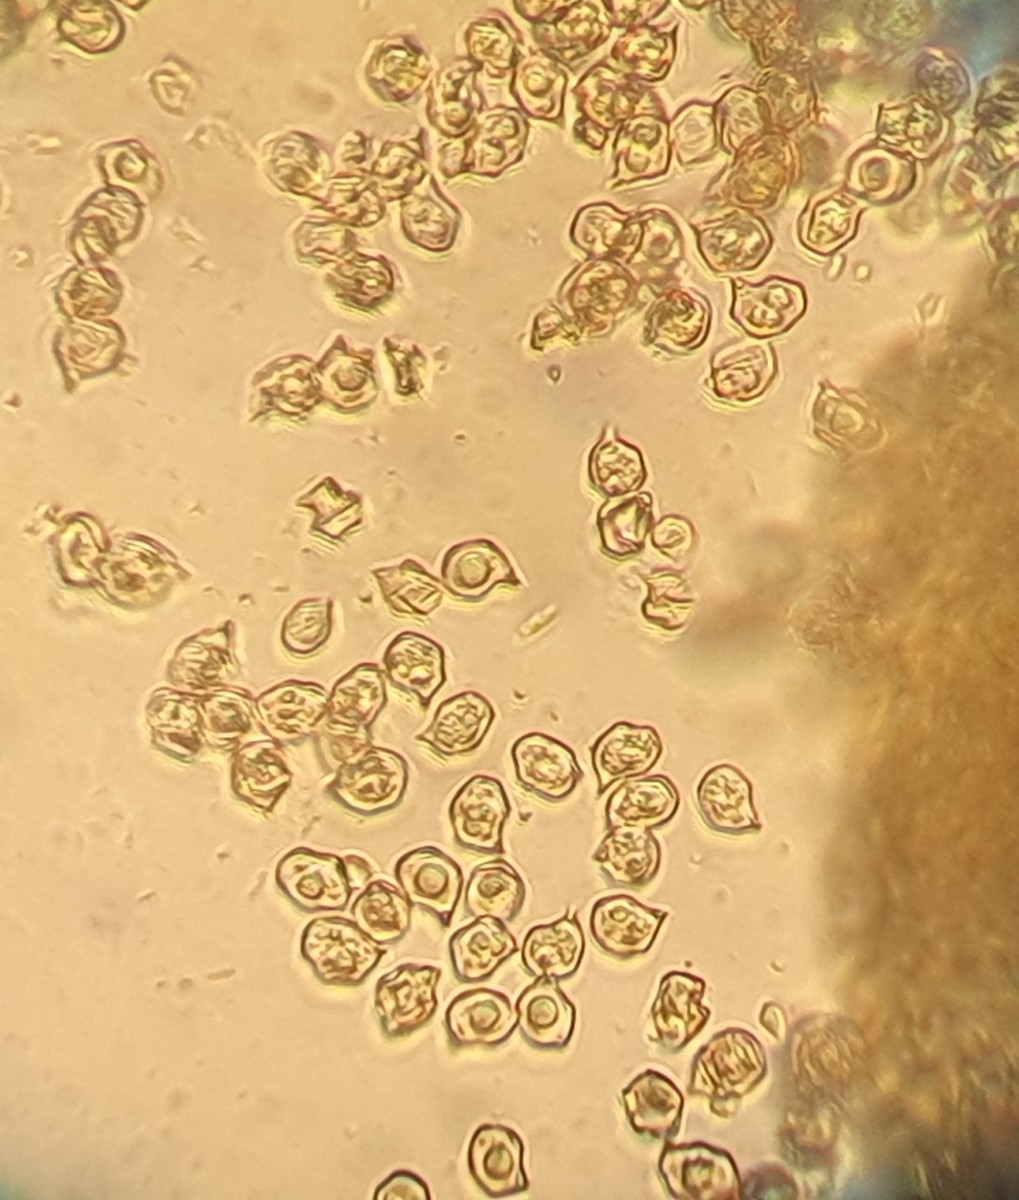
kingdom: Fungi
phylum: Basidiomycota
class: Agaricomycetes
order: Agaricales
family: Entolomataceae
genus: Entoloma
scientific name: Entoloma vernum
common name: vår-rødblad
